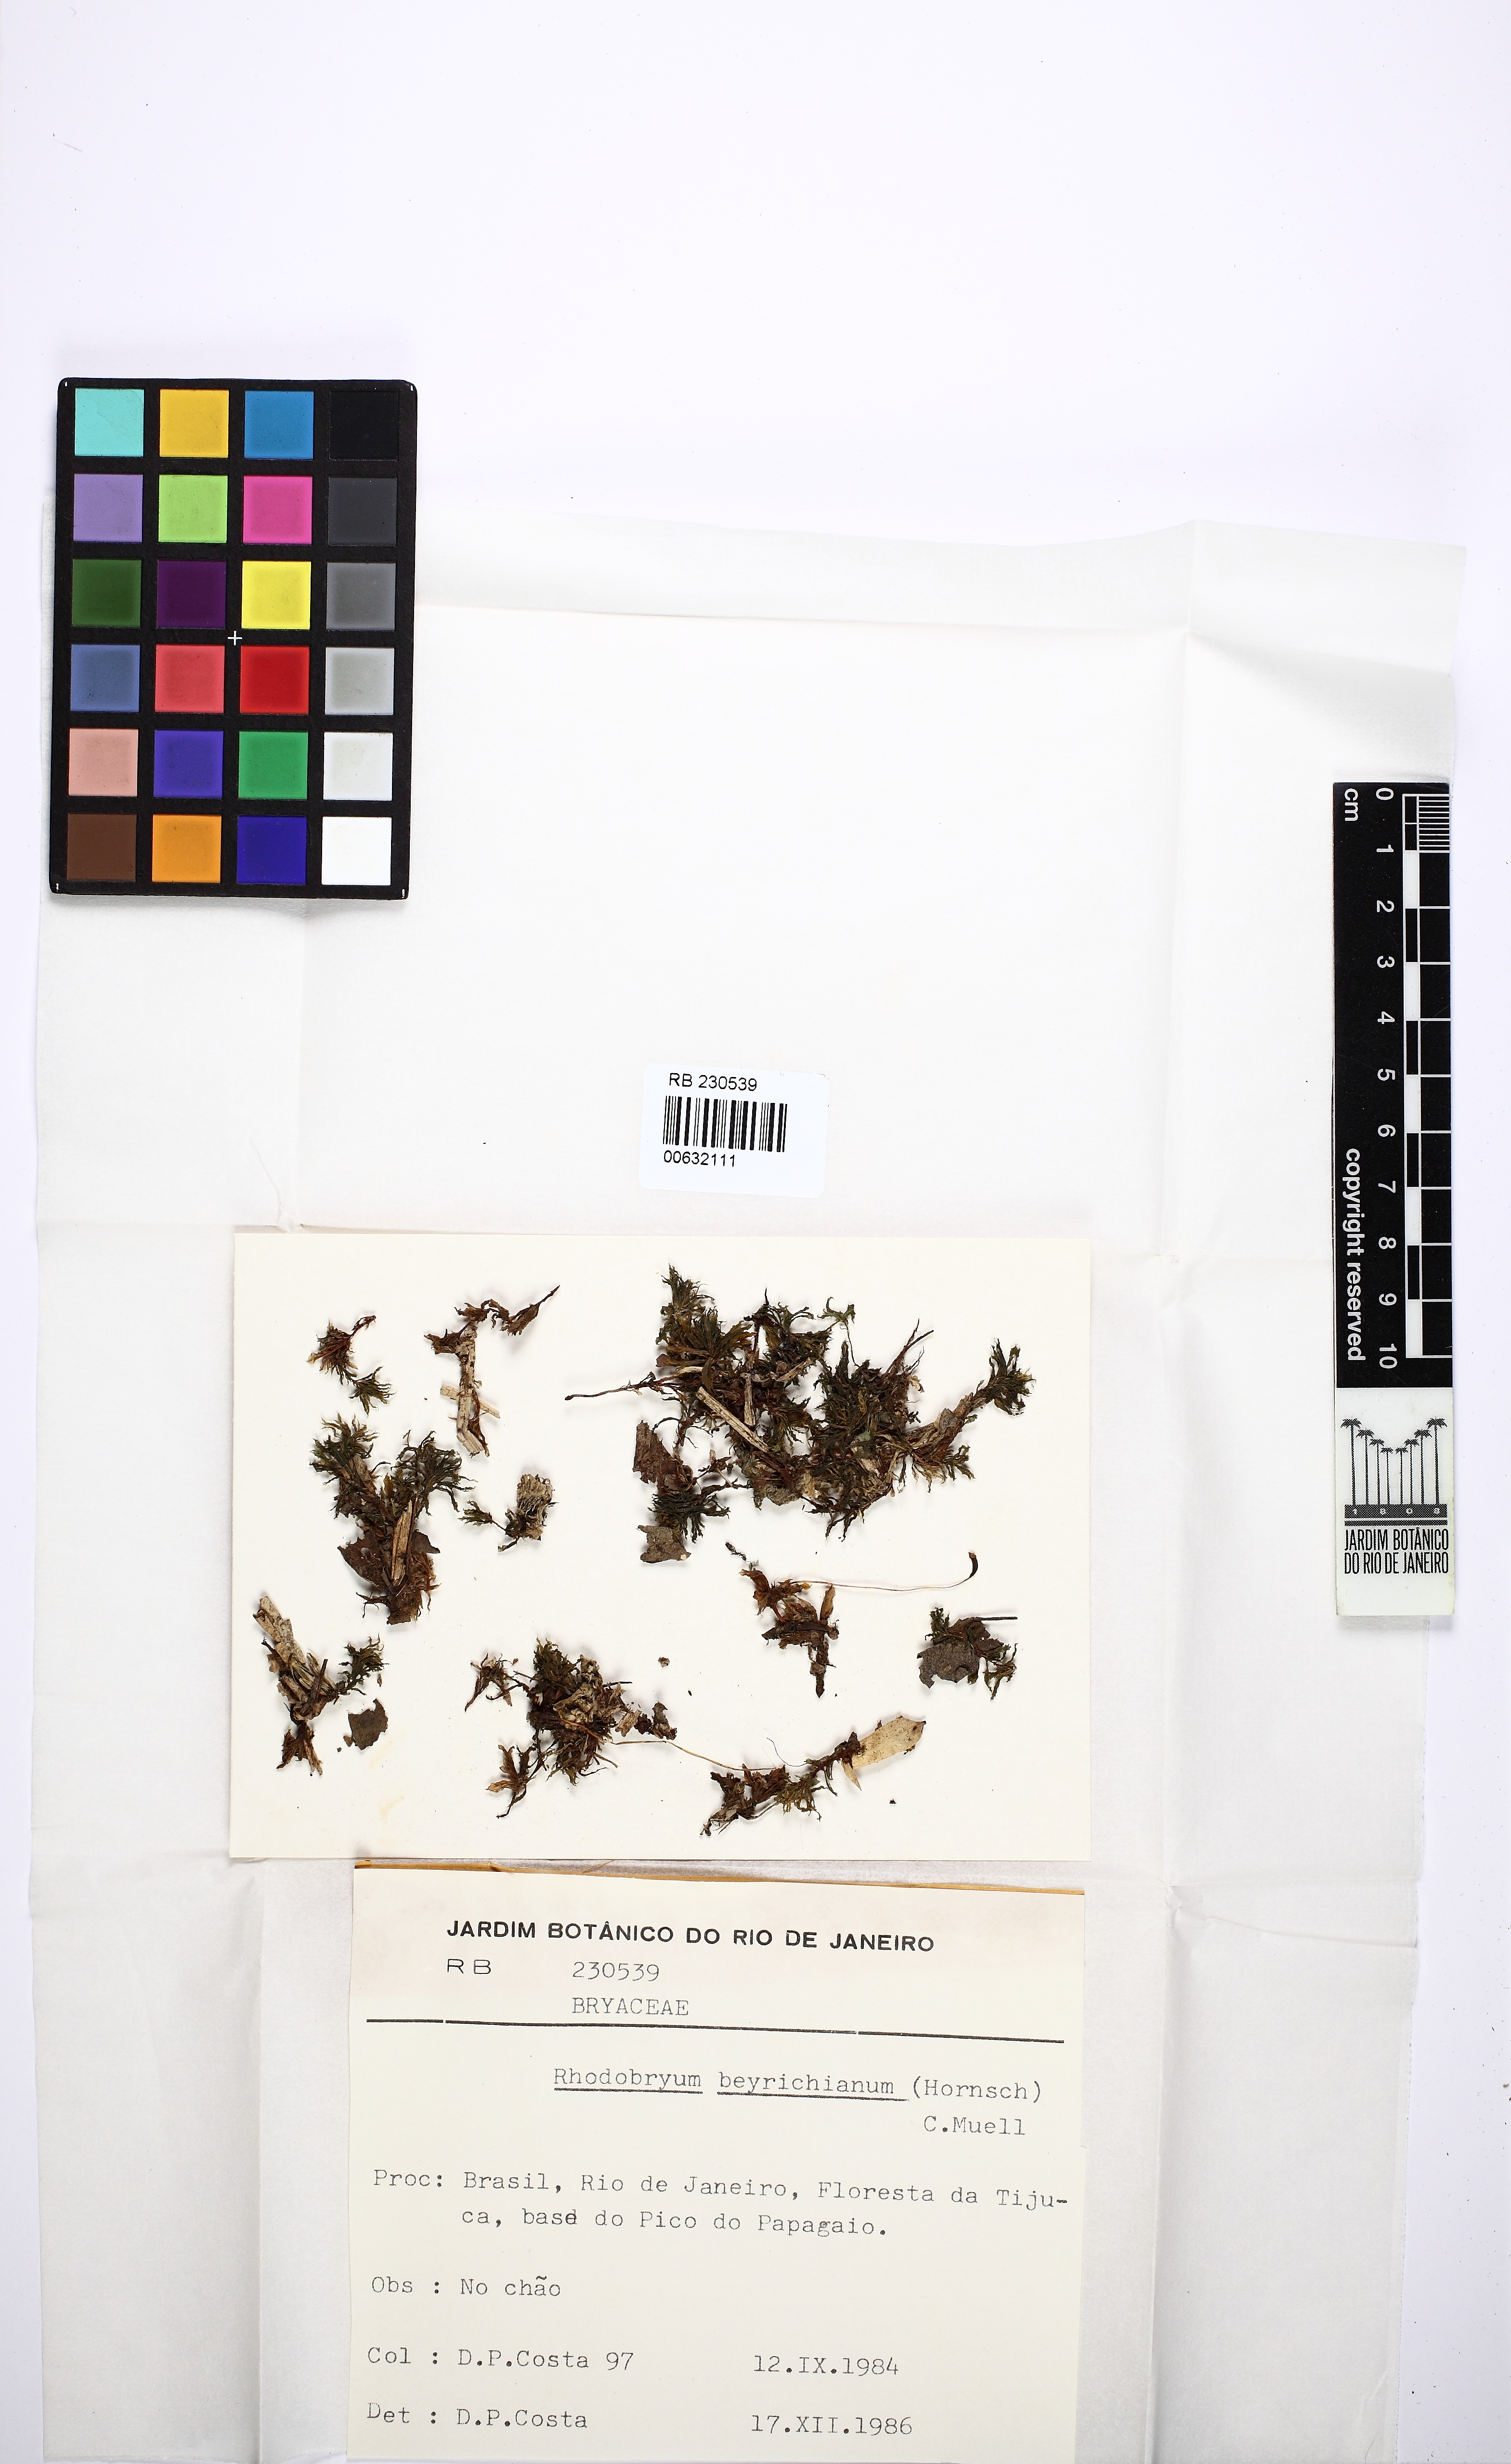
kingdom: Plantae
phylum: Bryophyta
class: Bryopsida
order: Bryales
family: Bryaceae
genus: Rhodobryum
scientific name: Rhodobryum beyrichianum
